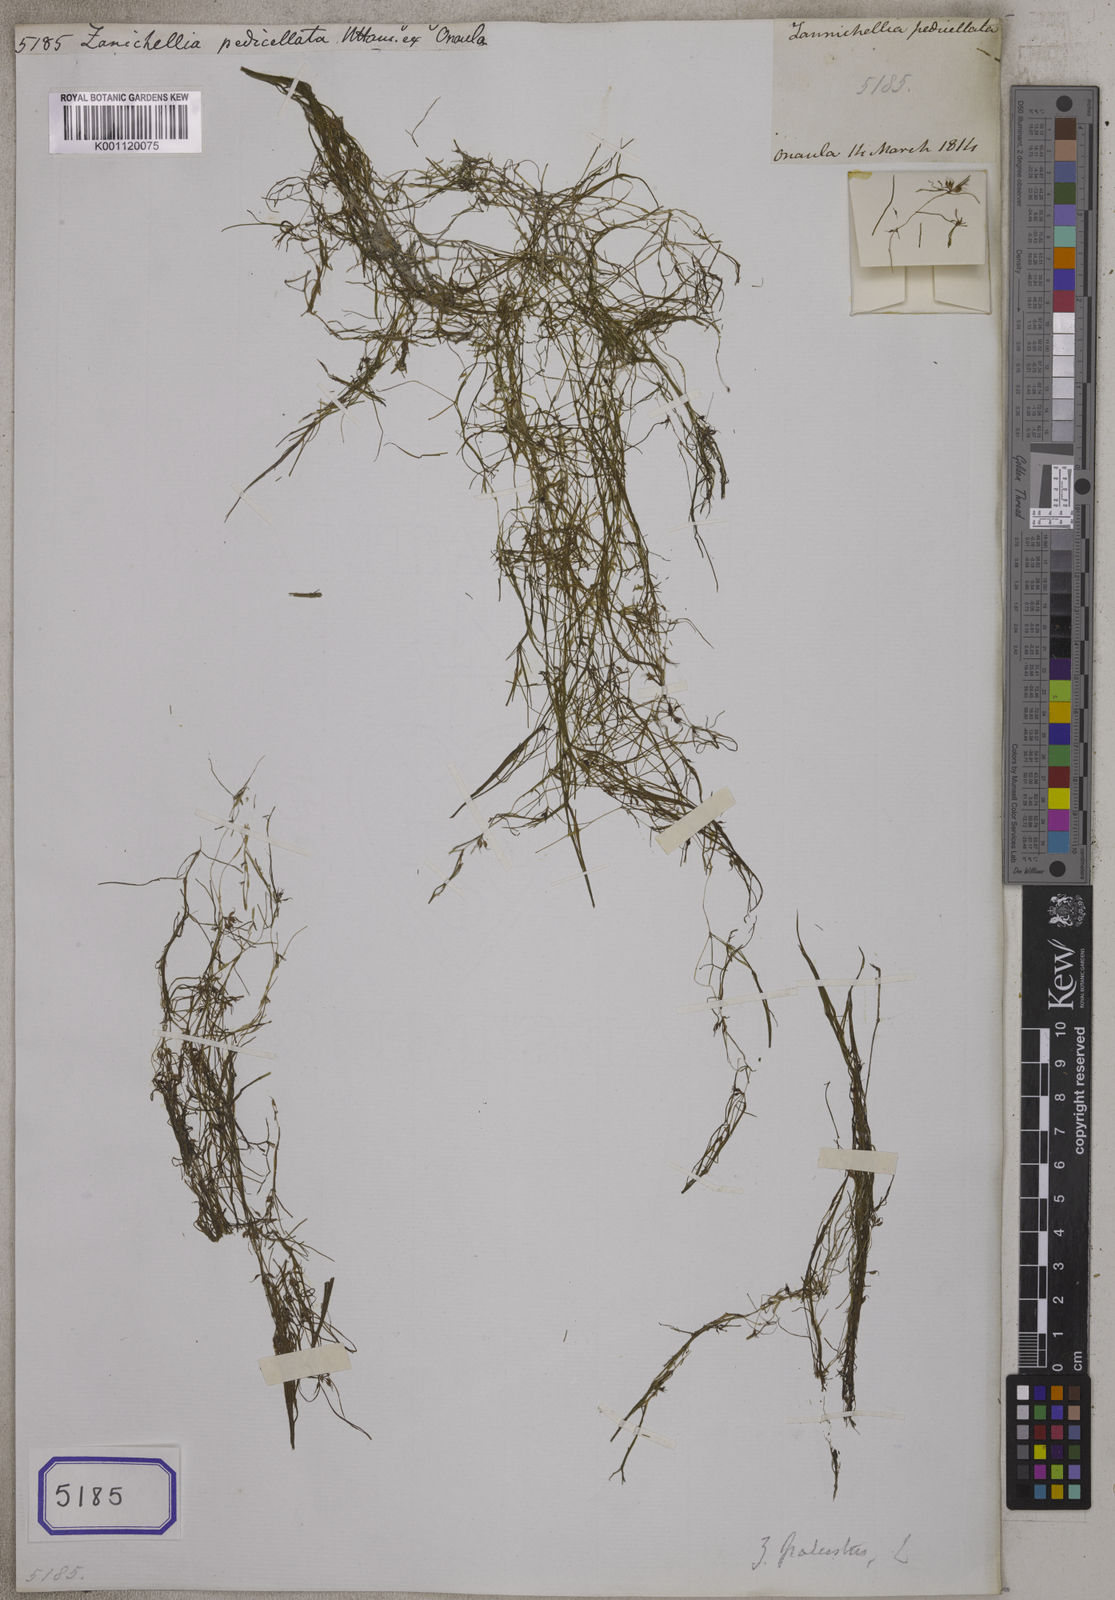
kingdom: Plantae
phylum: Tracheophyta
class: Liliopsida
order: Alismatales
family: Potamogetonaceae
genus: Zannichellia
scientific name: Zannichellia
